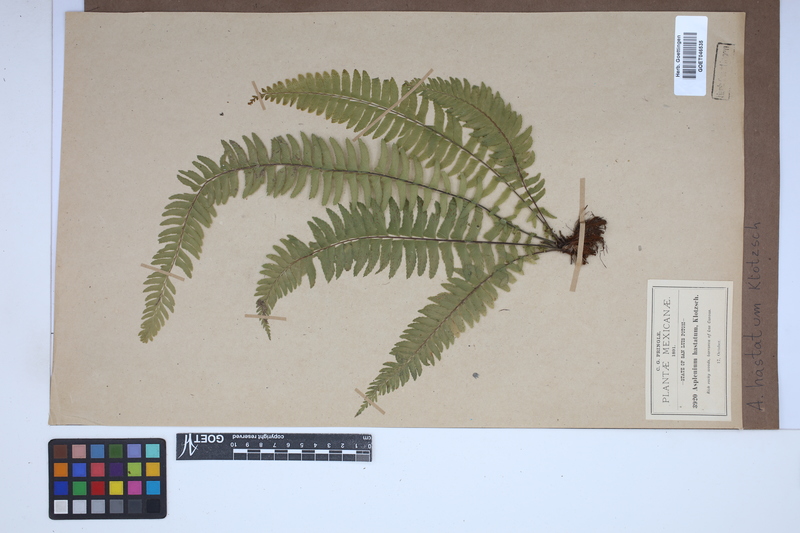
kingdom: Plantae
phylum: Tracheophyta
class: Polypodiopsida
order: Polypodiales
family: Aspleniaceae
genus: Asplenium
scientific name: Asplenium hastatum
